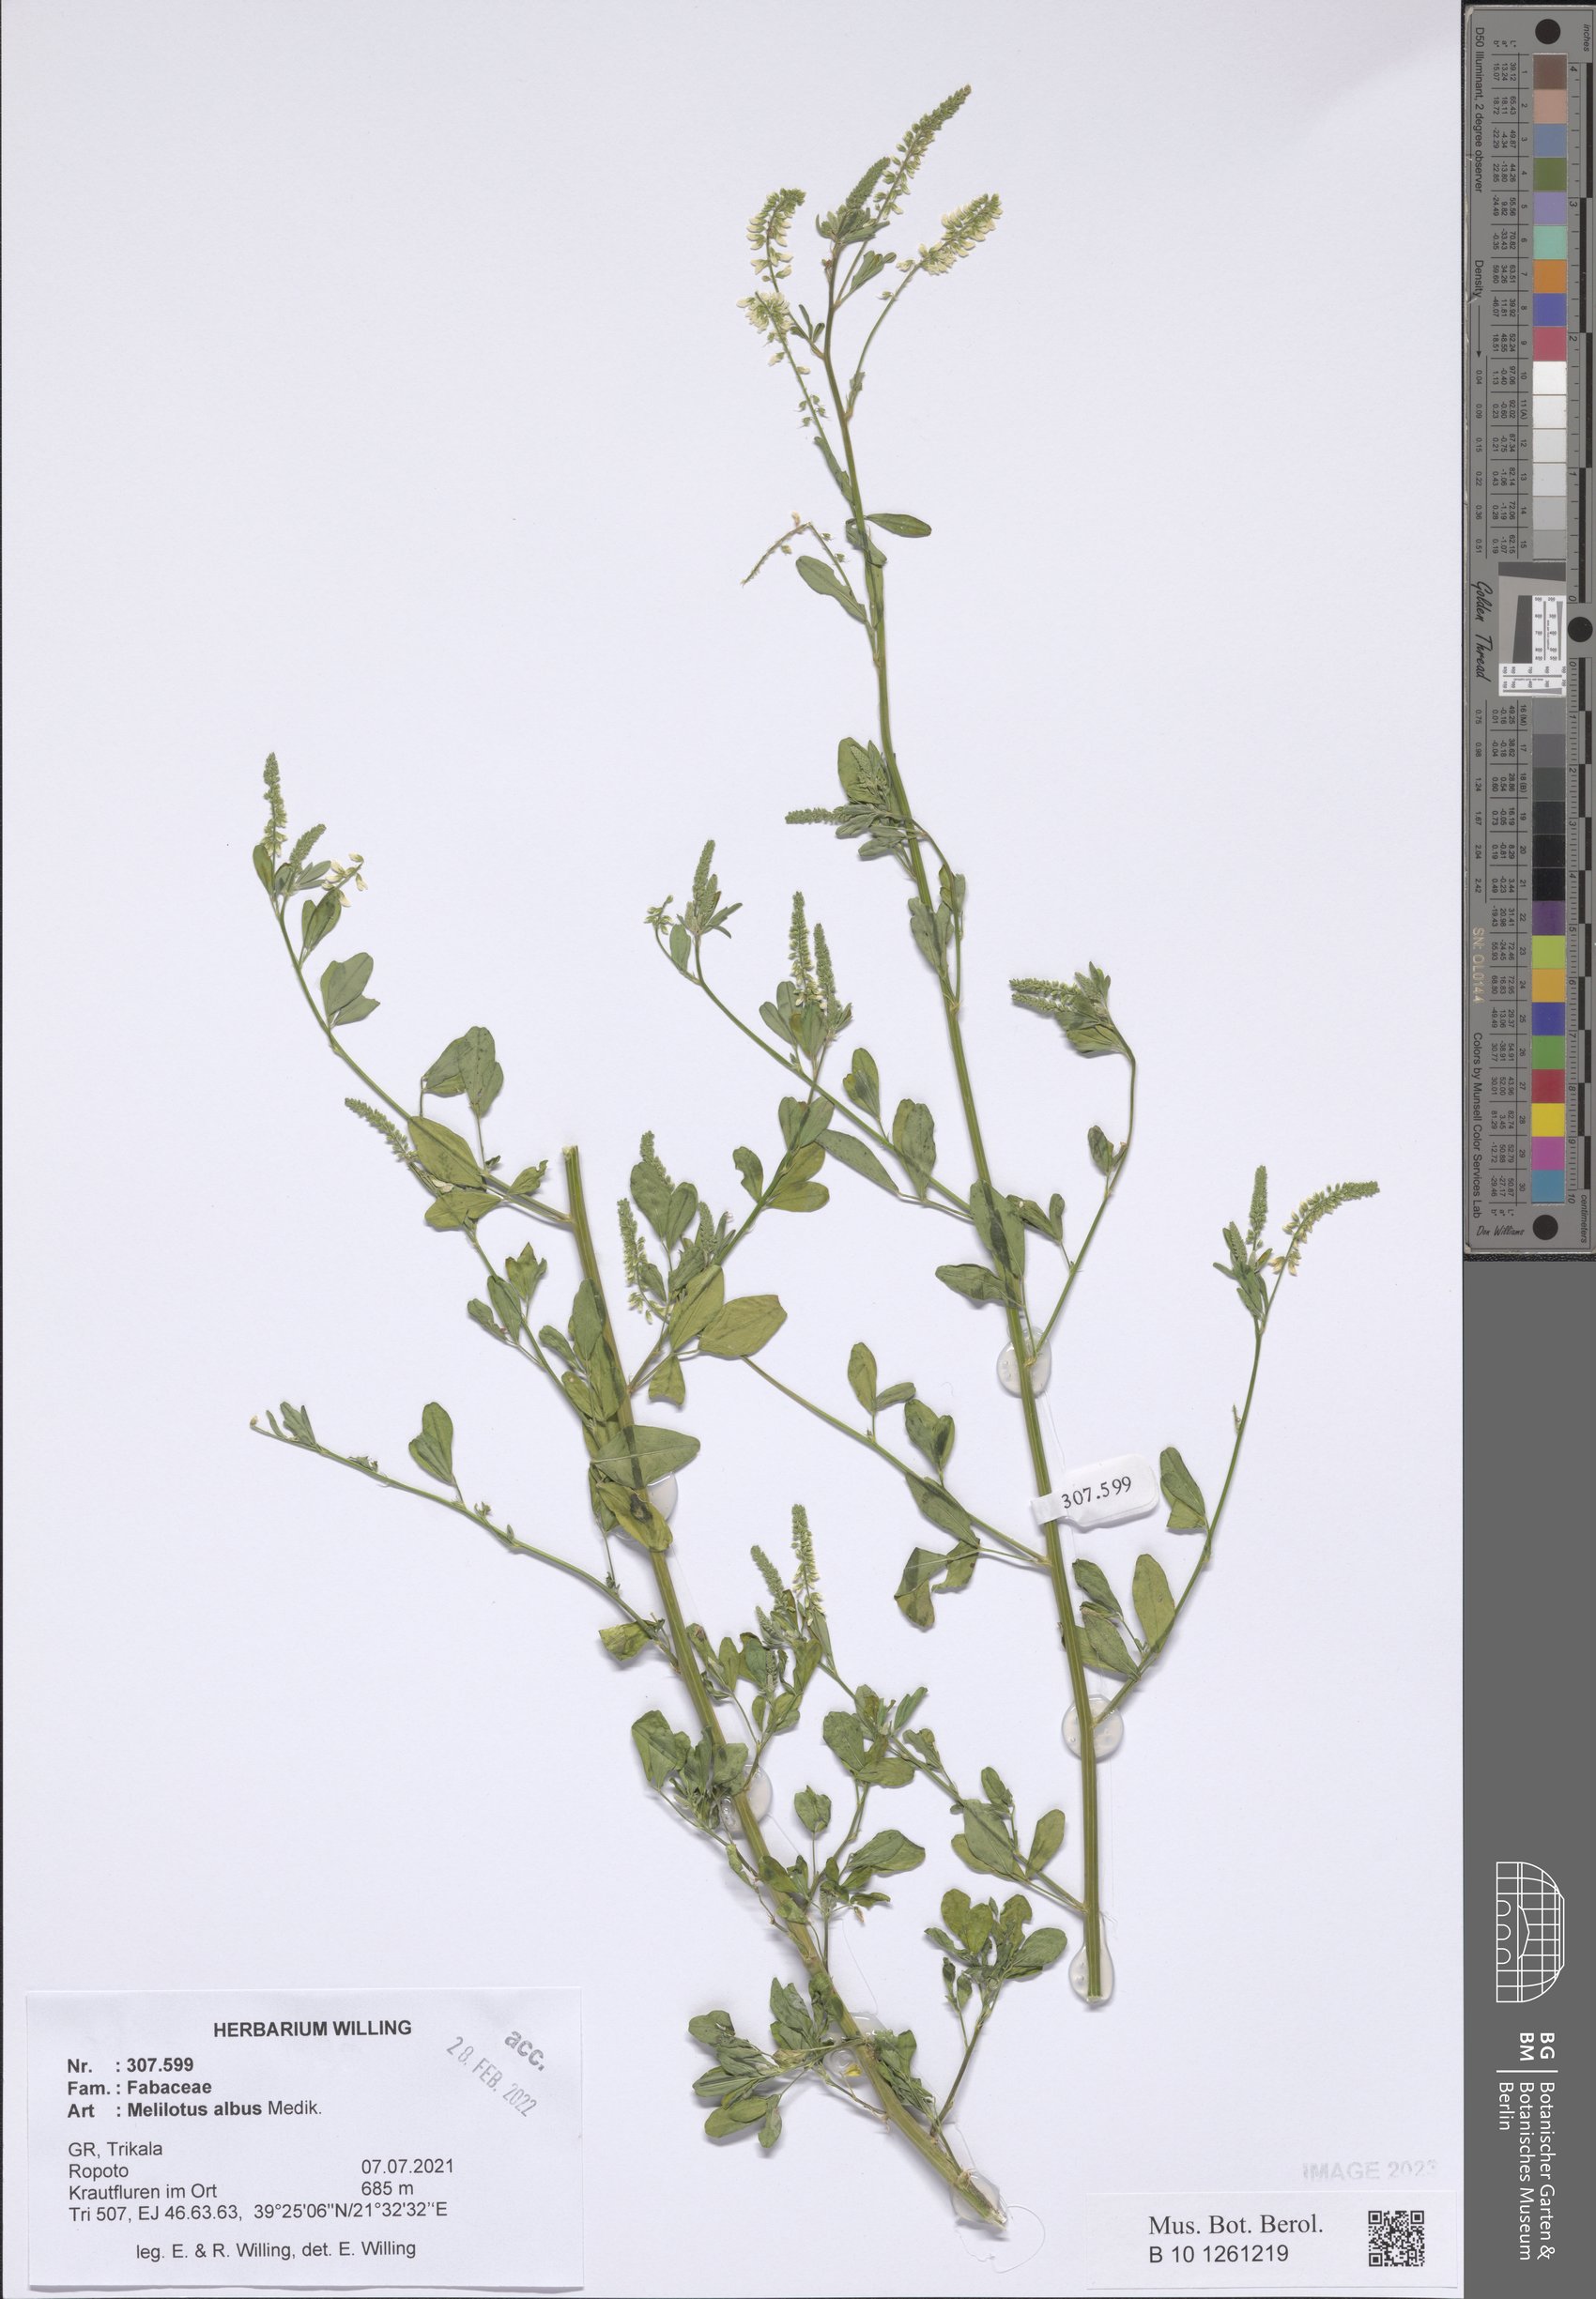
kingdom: Plantae
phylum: Tracheophyta
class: Magnoliopsida
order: Fabales
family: Fabaceae
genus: Melilotus
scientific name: Melilotus albus
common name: White melilot
